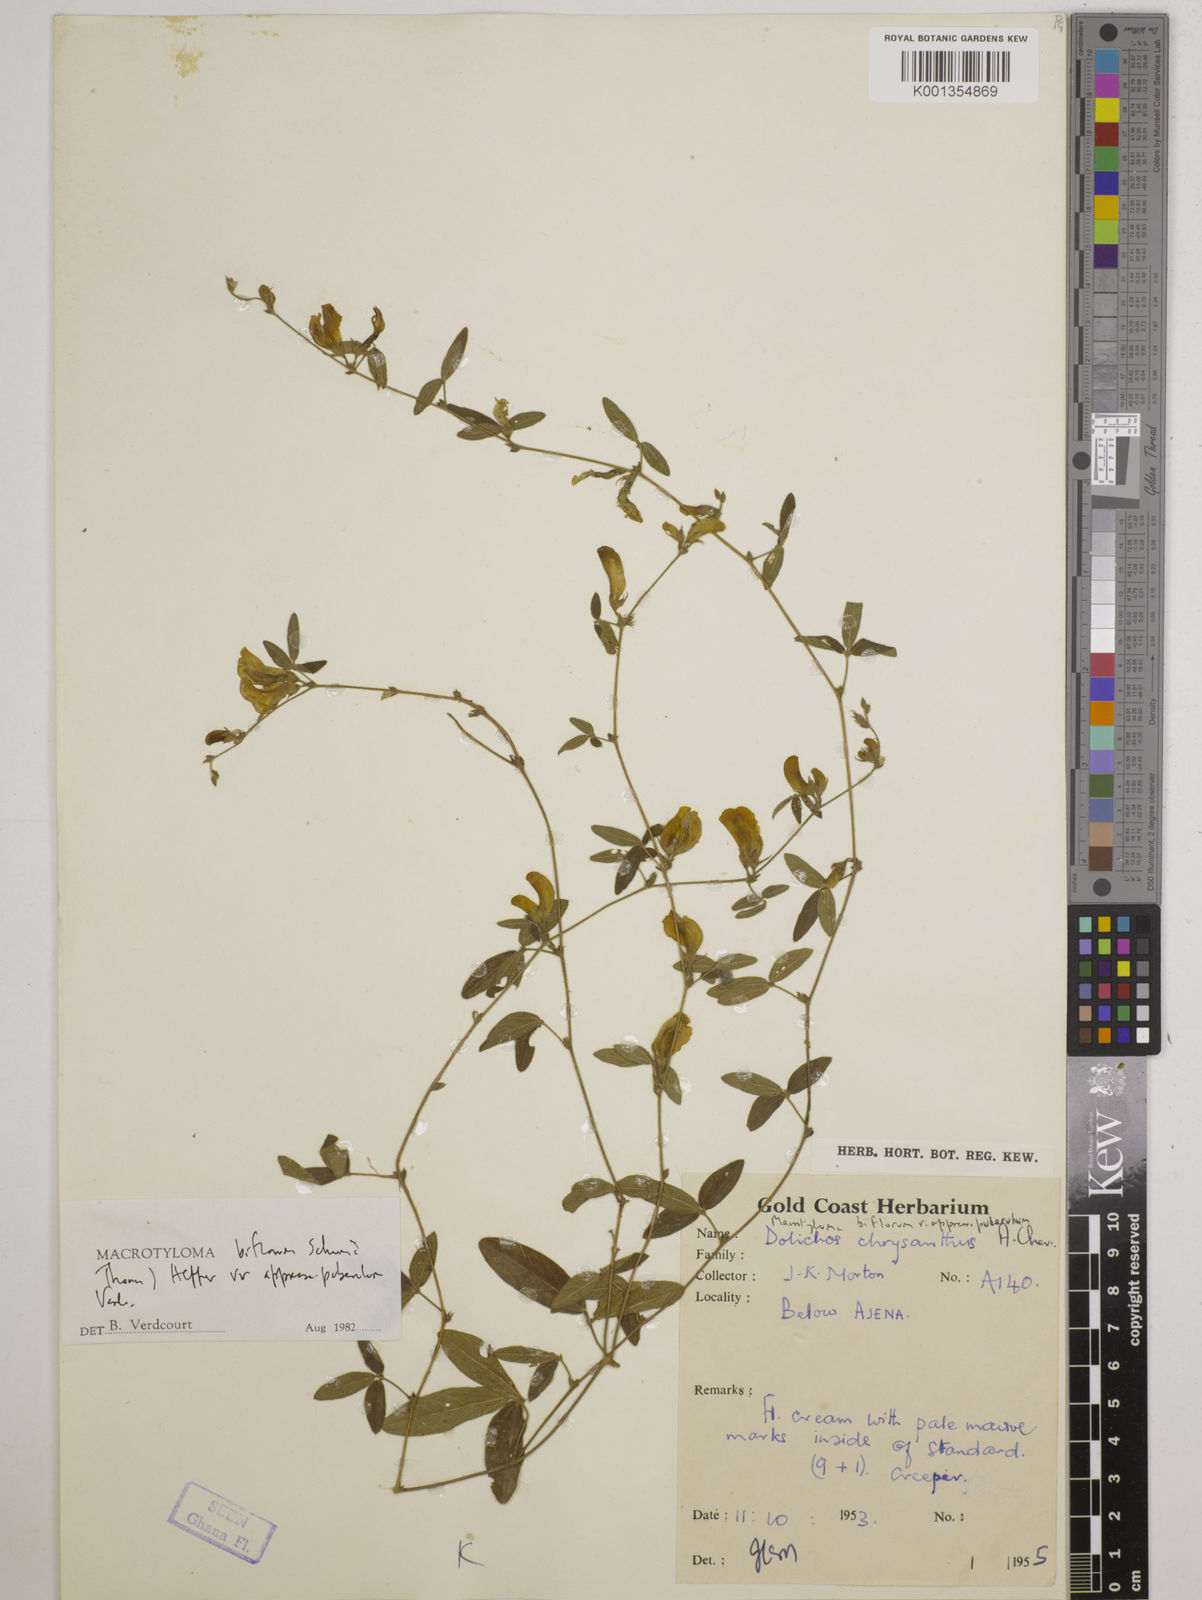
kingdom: Plantae
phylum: Tracheophyta
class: Magnoliopsida
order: Fabales
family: Fabaceae
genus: Macrotyloma
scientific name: Macrotyloma biflorum
